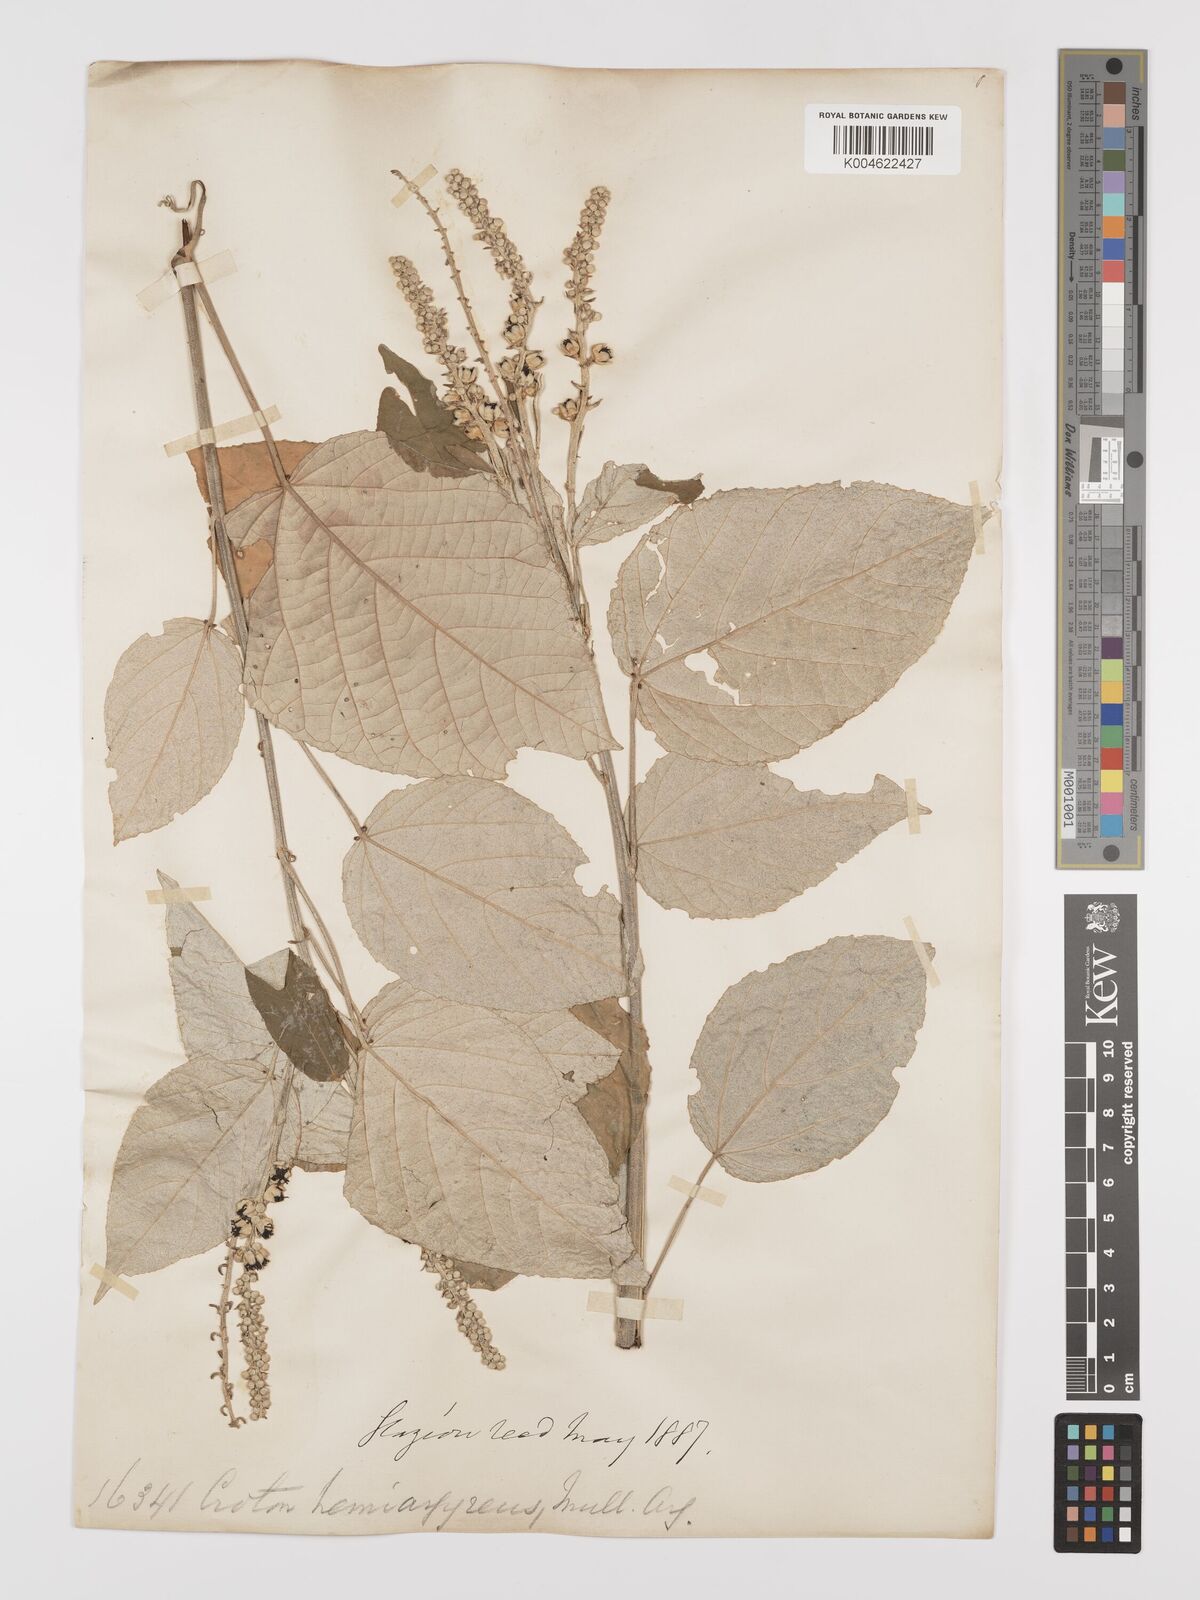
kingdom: Plantae
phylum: Tracheophyta
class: Magnoliopsida
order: Malpighiales
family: Euphorbiaceae
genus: Croton
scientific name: Croton hemiargyreus
